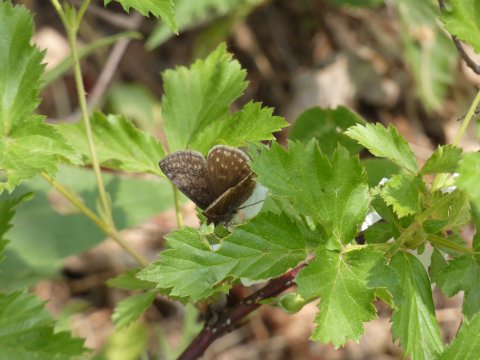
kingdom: Animalia
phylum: Arthropoda
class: Insecta
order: Lepidoptera
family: Hesperiidae
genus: Erynnis
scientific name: Erynnis icelus
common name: Dreamy Duskywing
